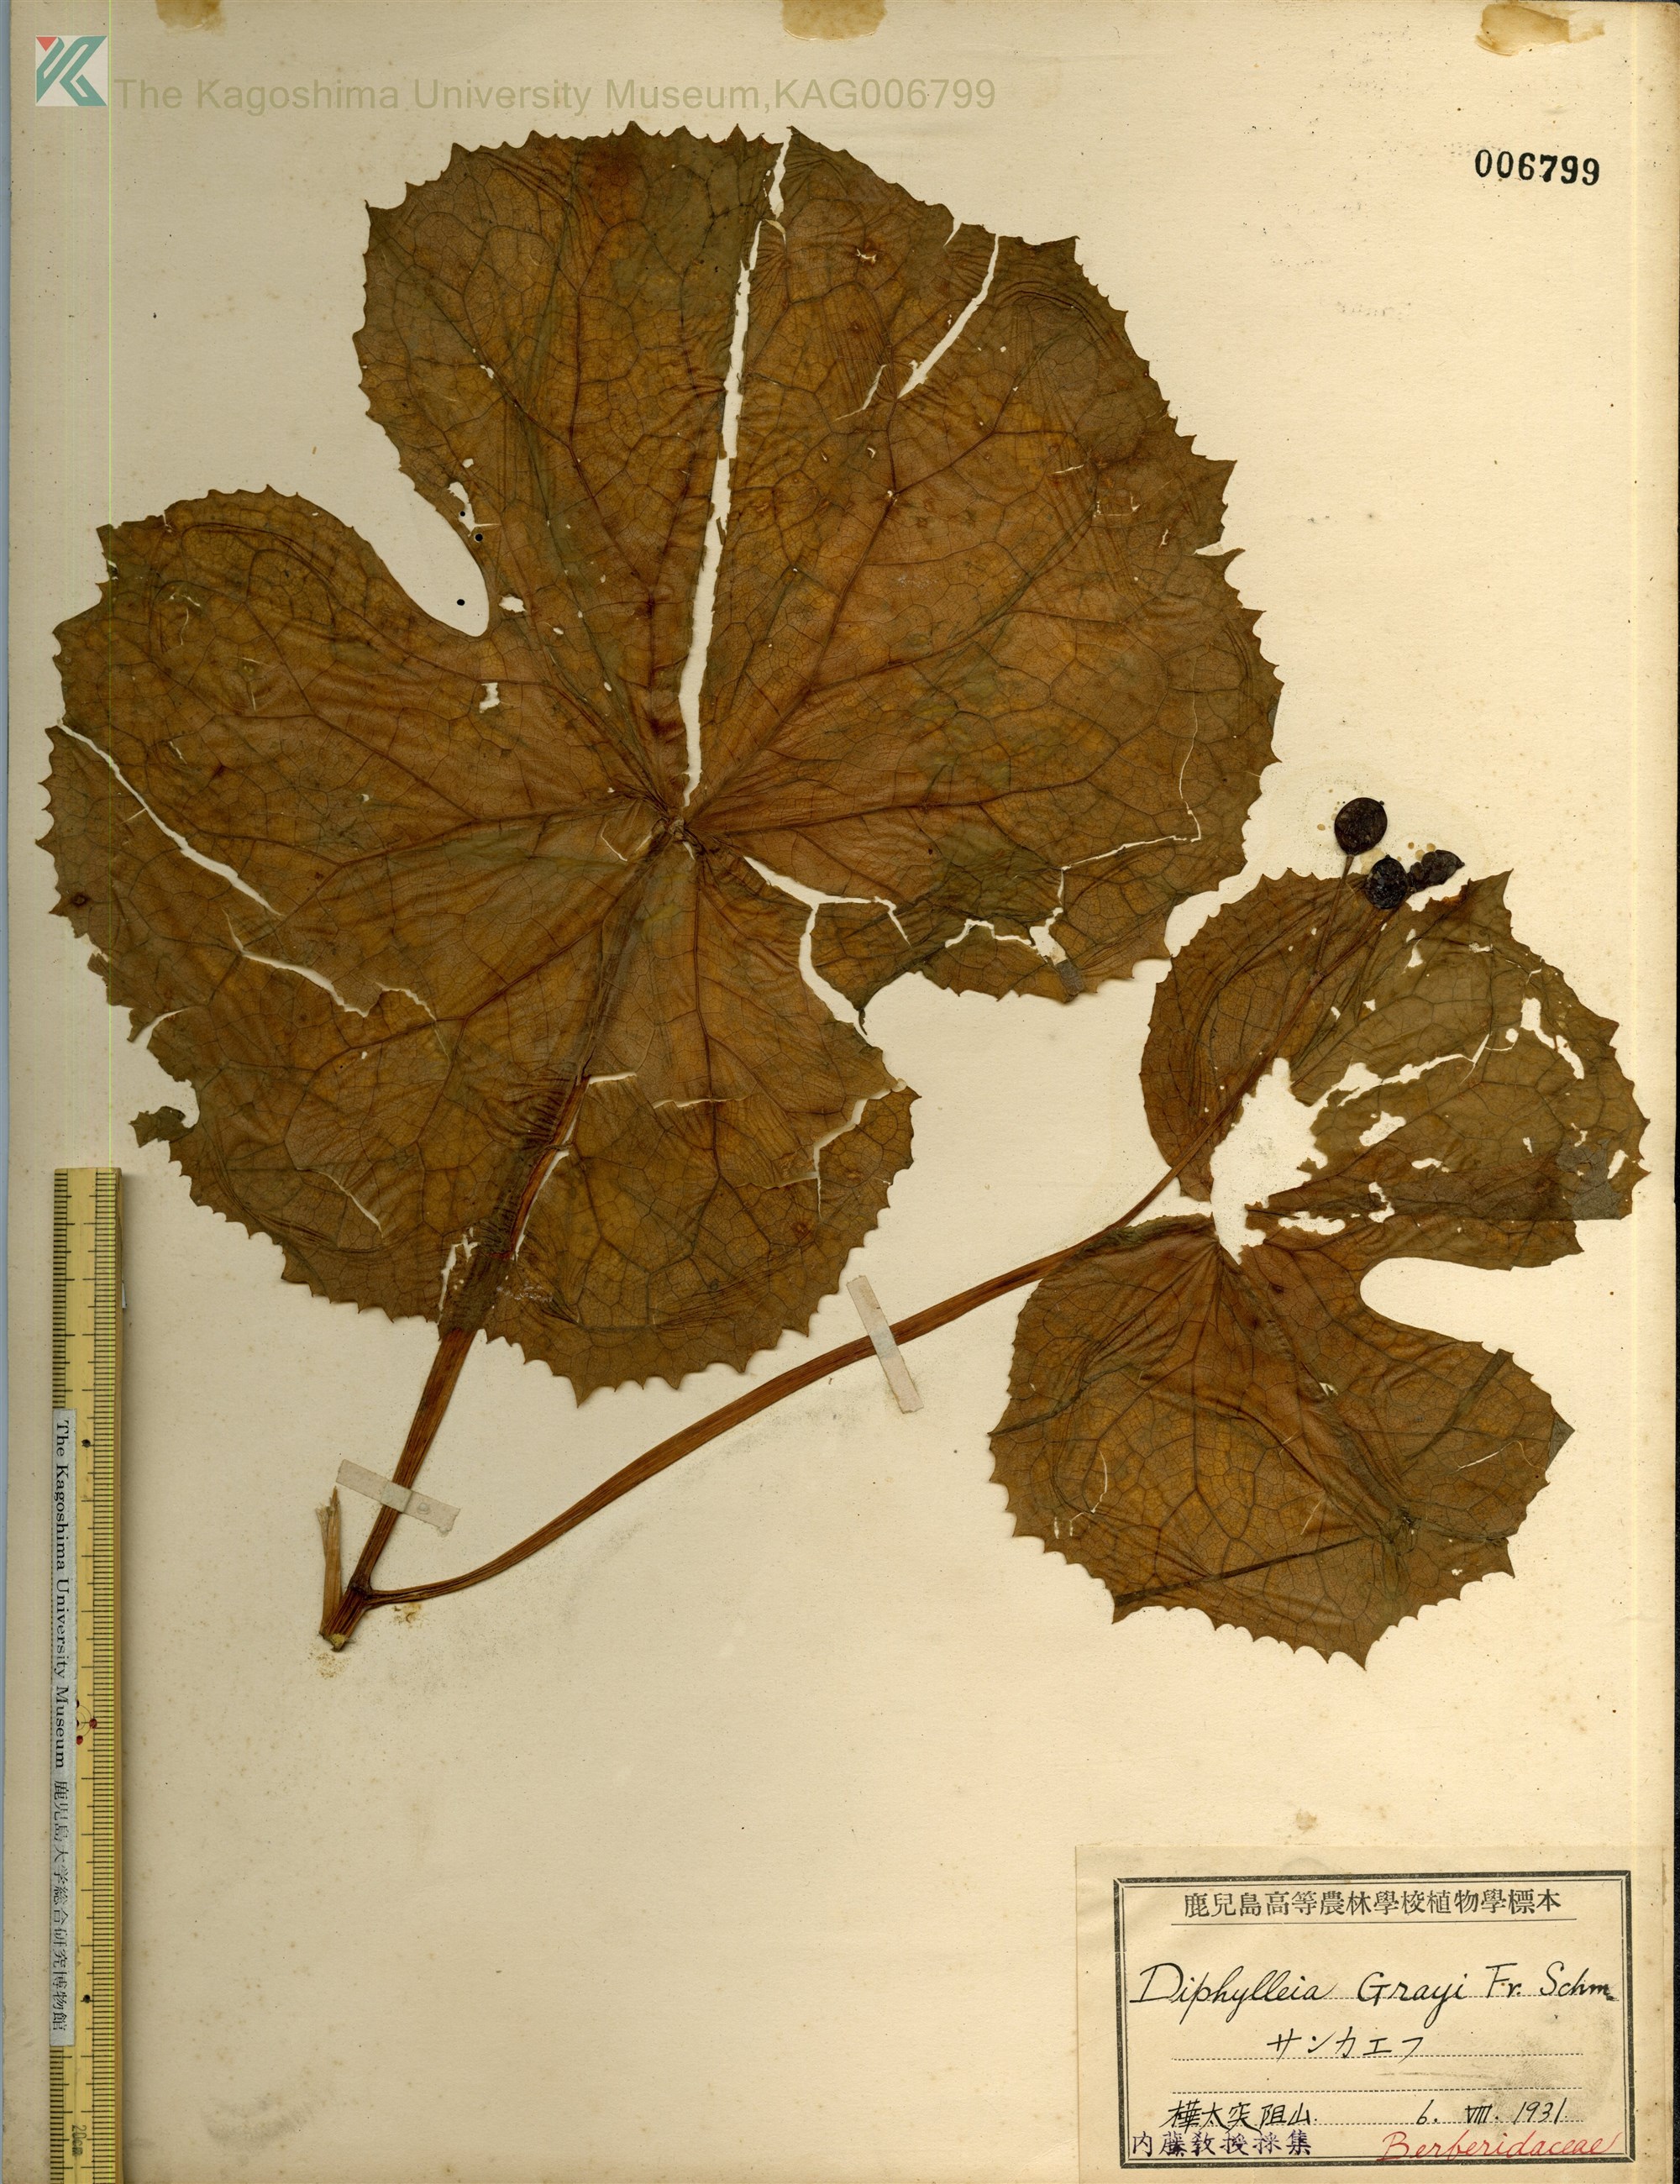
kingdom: Plantae
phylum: Tracheophyta
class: Magnoliopsida
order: Ranunculales
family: Berberidaceae
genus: Diphylleia
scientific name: Diphylleia grayi
